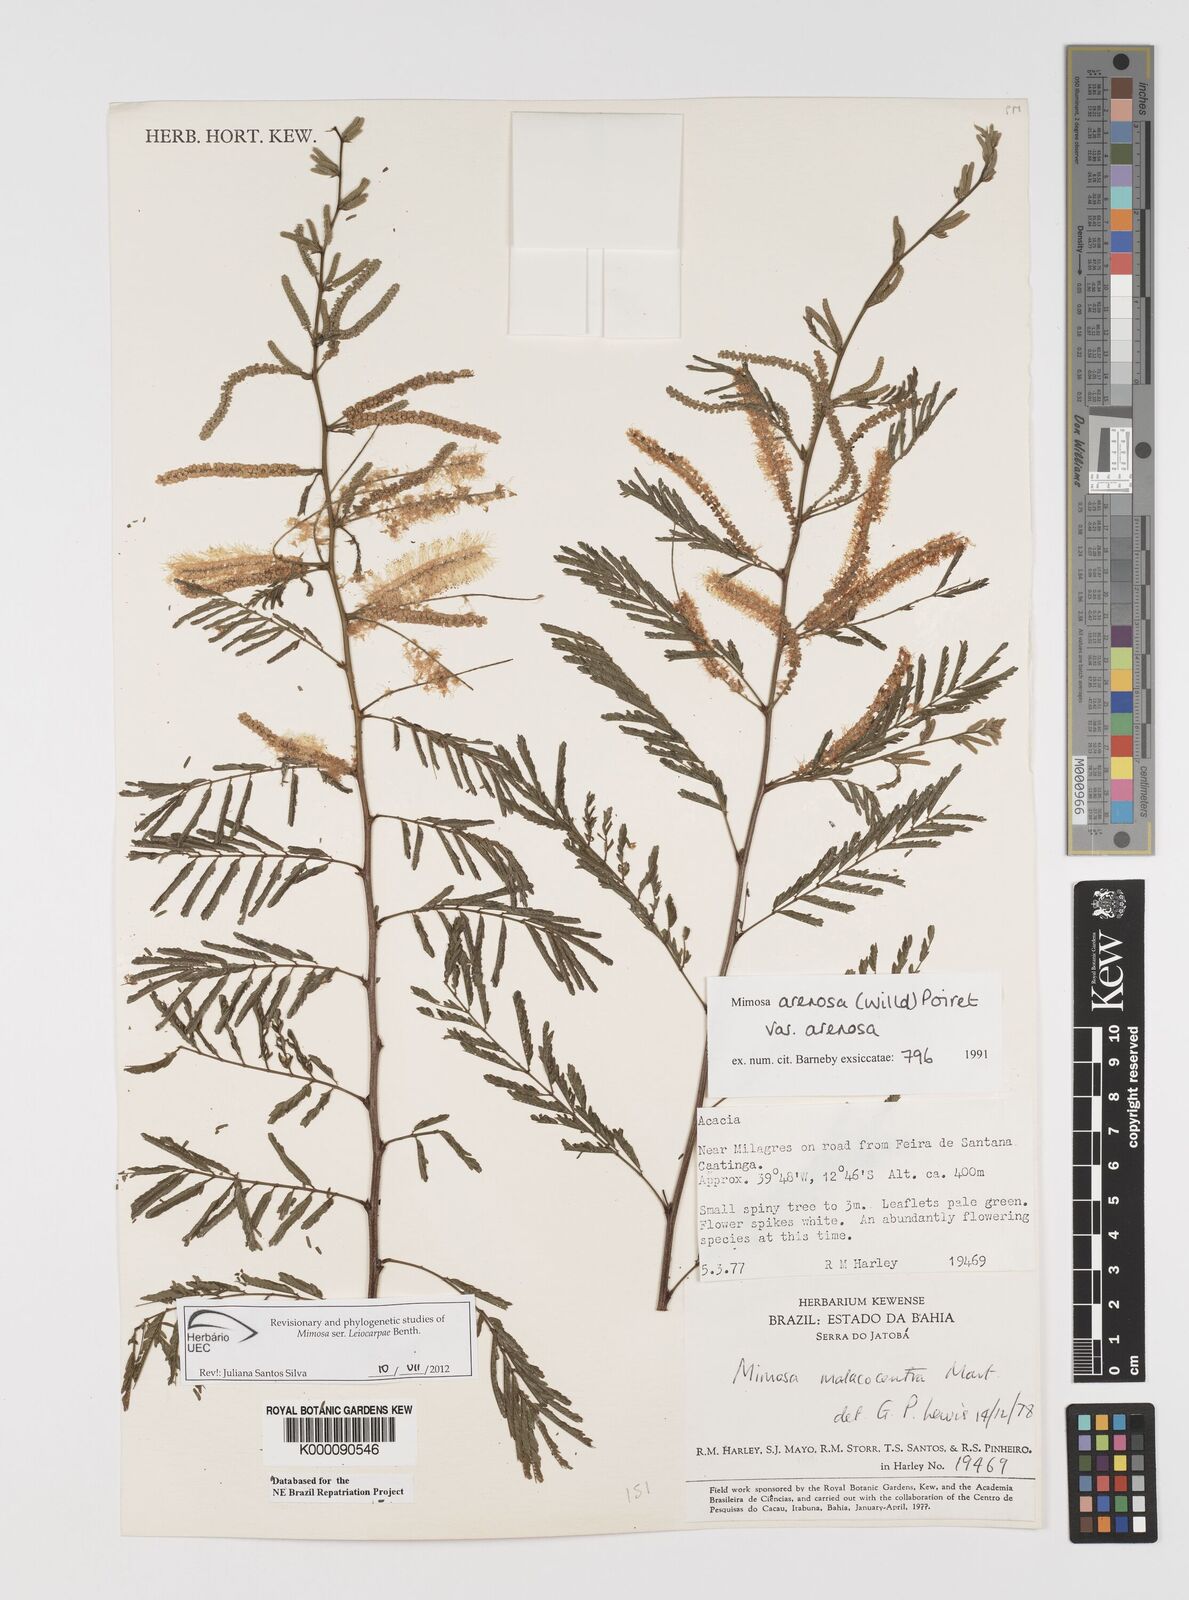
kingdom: Plantae
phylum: Tracheophyta
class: Magnoliopsida
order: Fabales
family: Fabaceae
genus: Mimosa
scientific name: Mimosa arenosa
